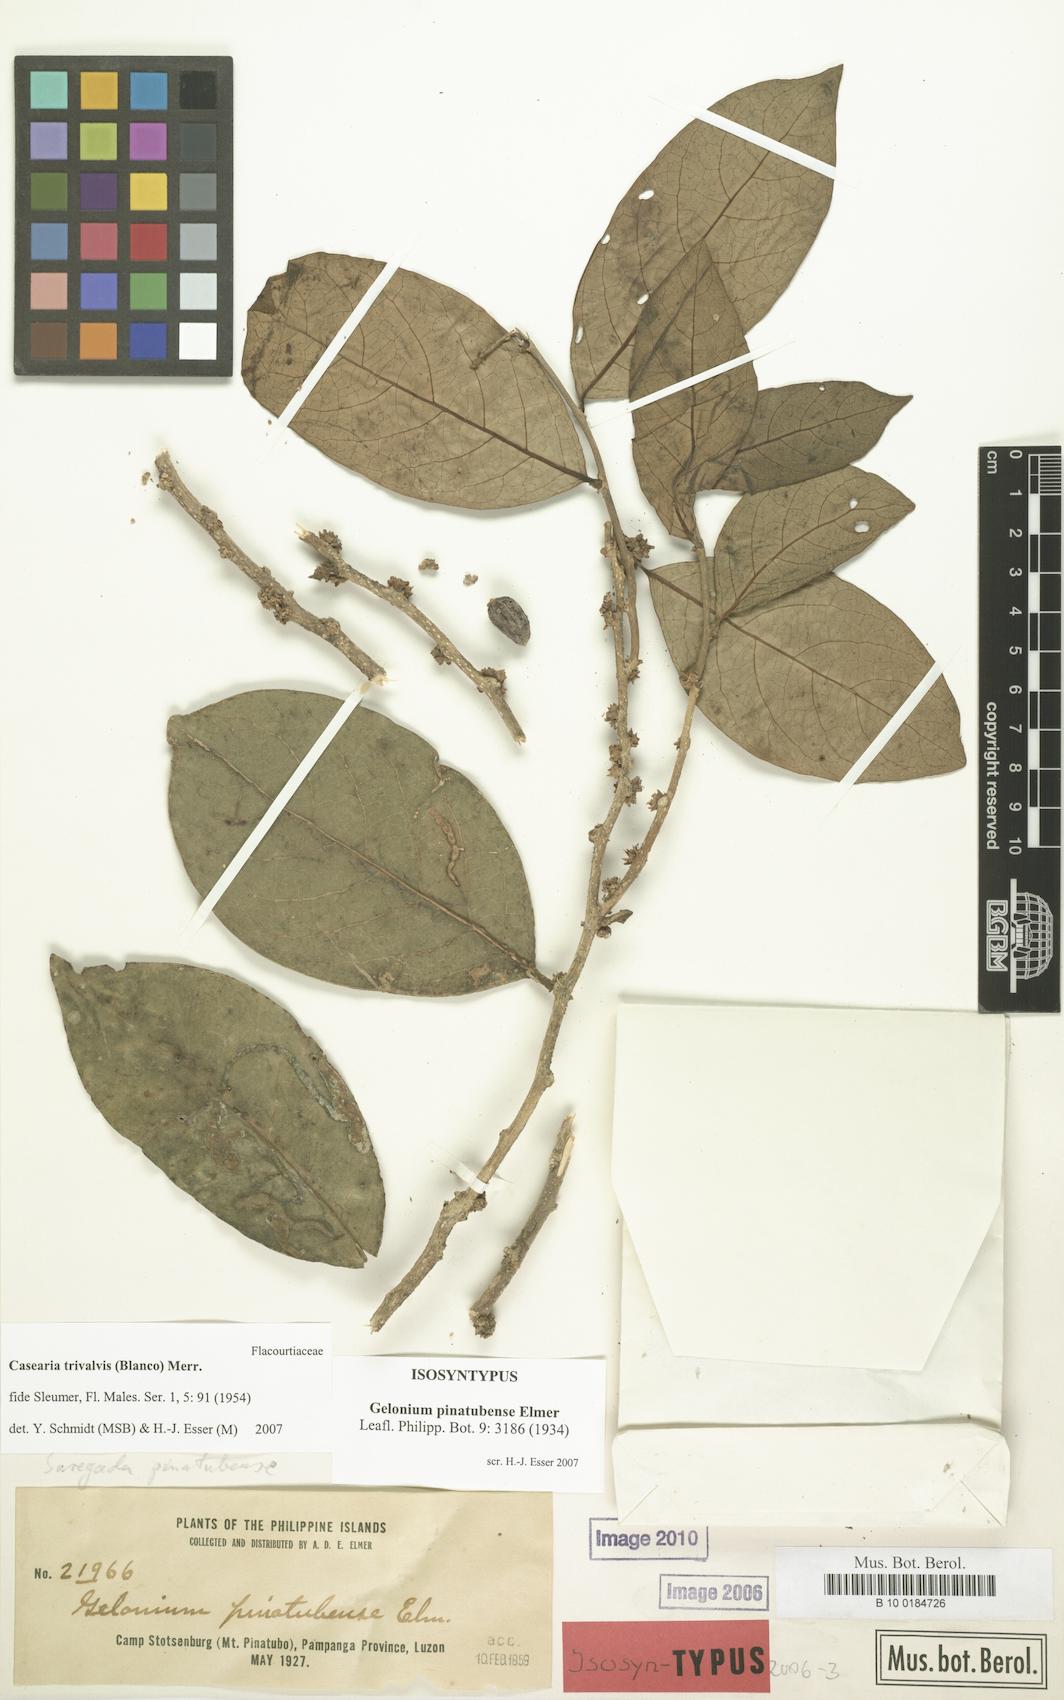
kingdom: Plantae
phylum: Tracheophyta
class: Magnoliopsida
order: Malpighiales
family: Salicaceae
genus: Casearia
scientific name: Casearia trivalvis
